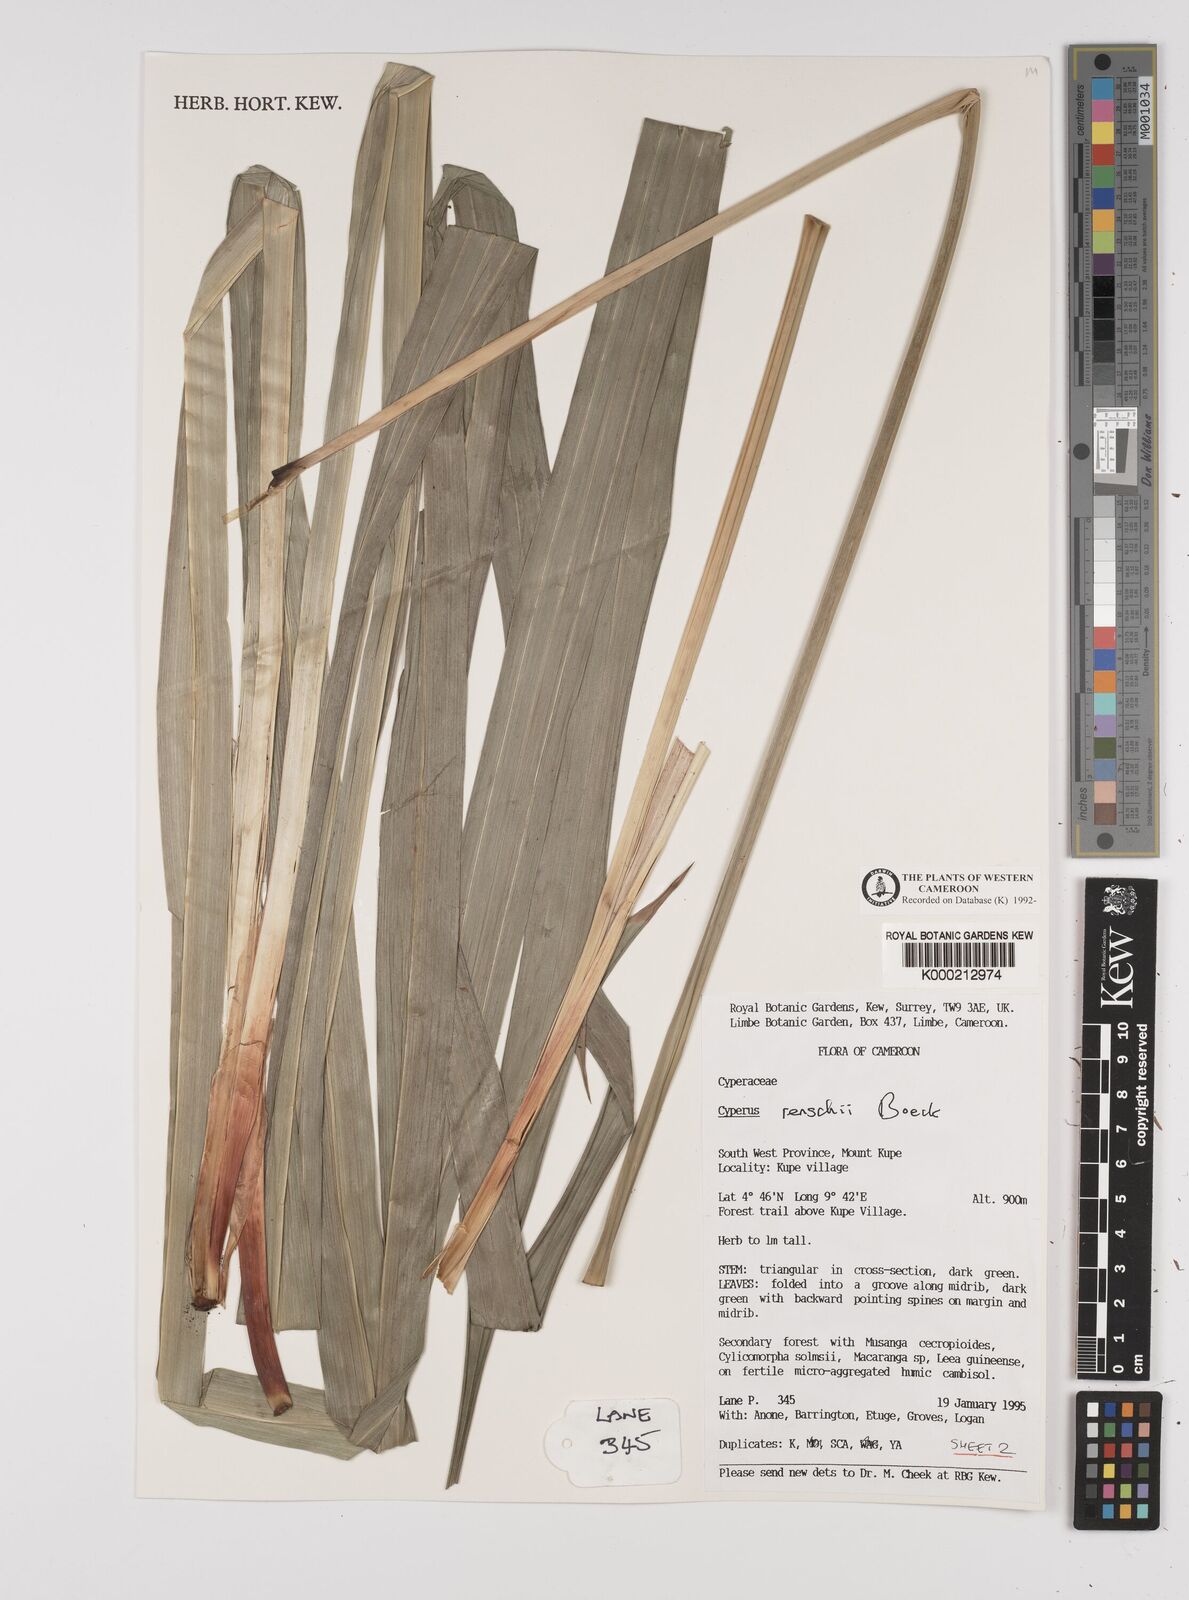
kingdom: Plantae
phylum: Tracheophyta
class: Liliopsida
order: Poales
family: Cyperaceae
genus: Cyperus
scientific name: Cyperus renschii
